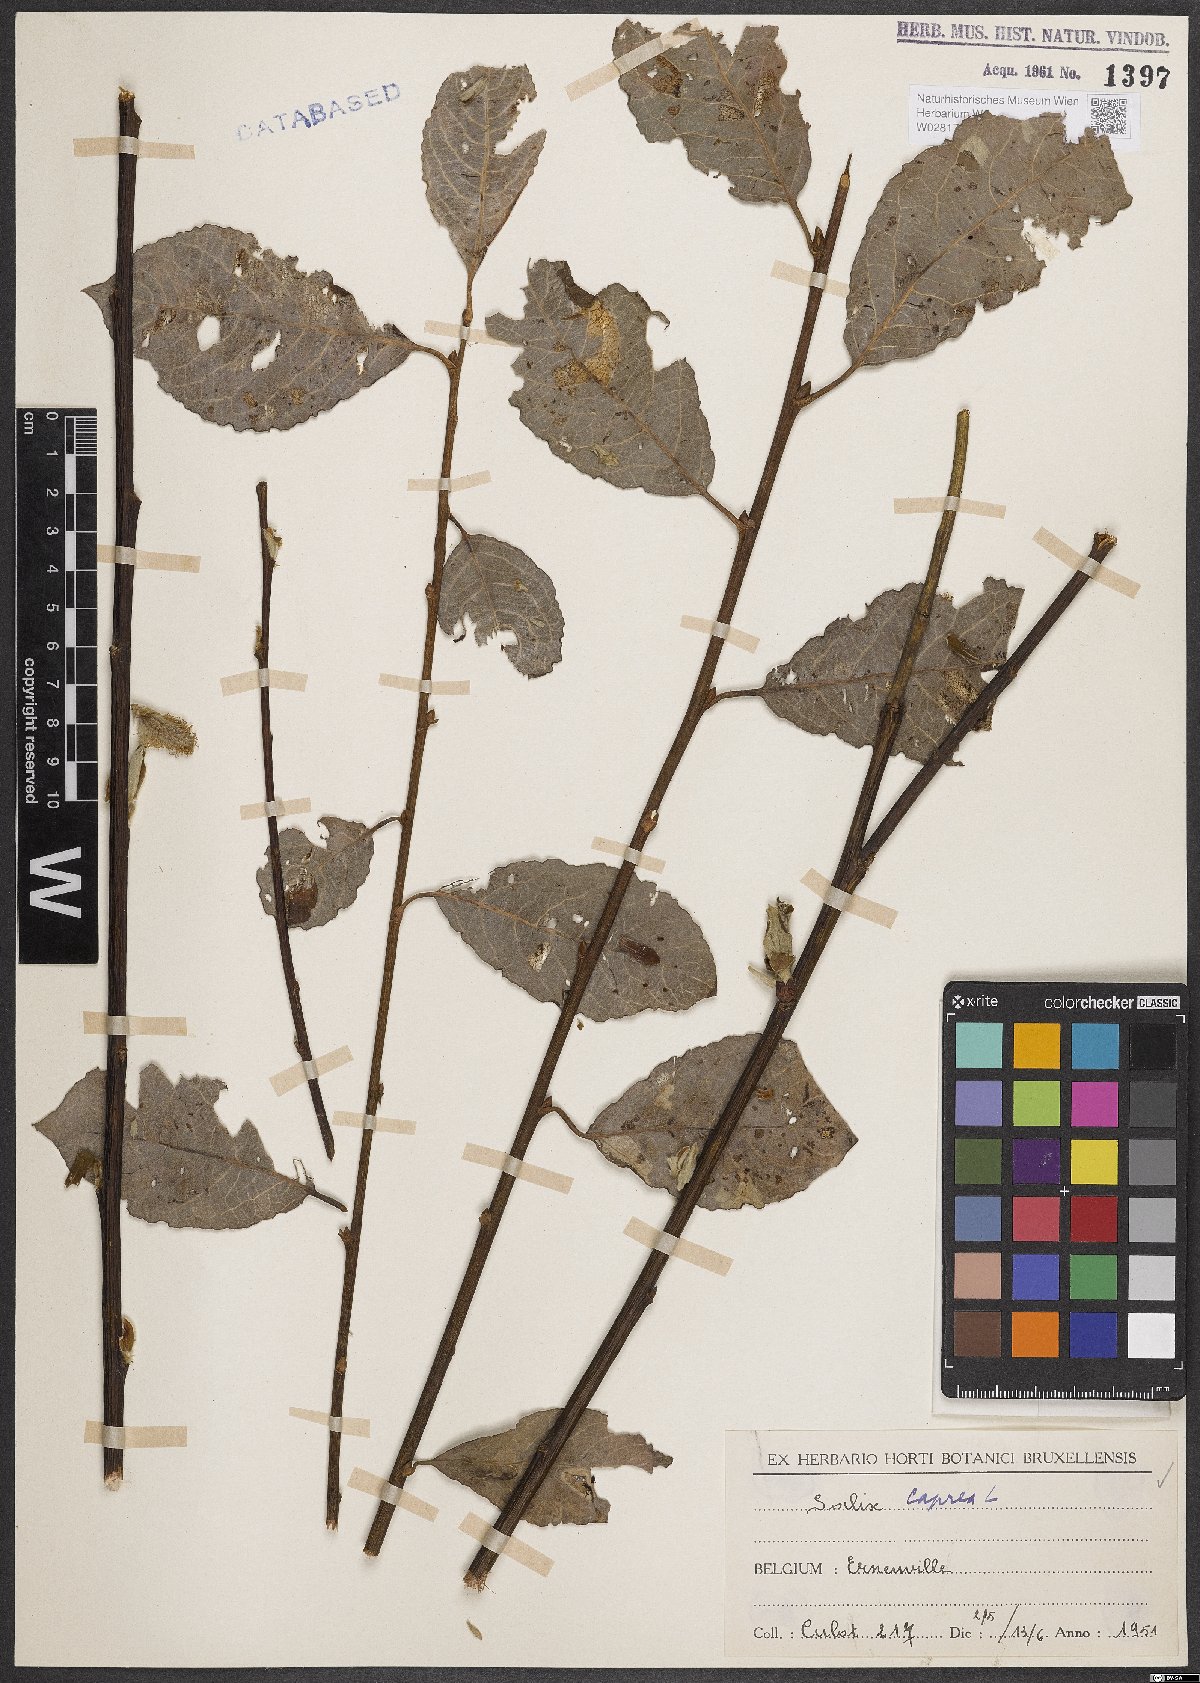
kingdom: Plantae
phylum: Tracheophyta
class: Magnoliopsida
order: Malpighiales
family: Salicaceae
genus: Salix
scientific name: Salix caprea
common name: Goat willow
